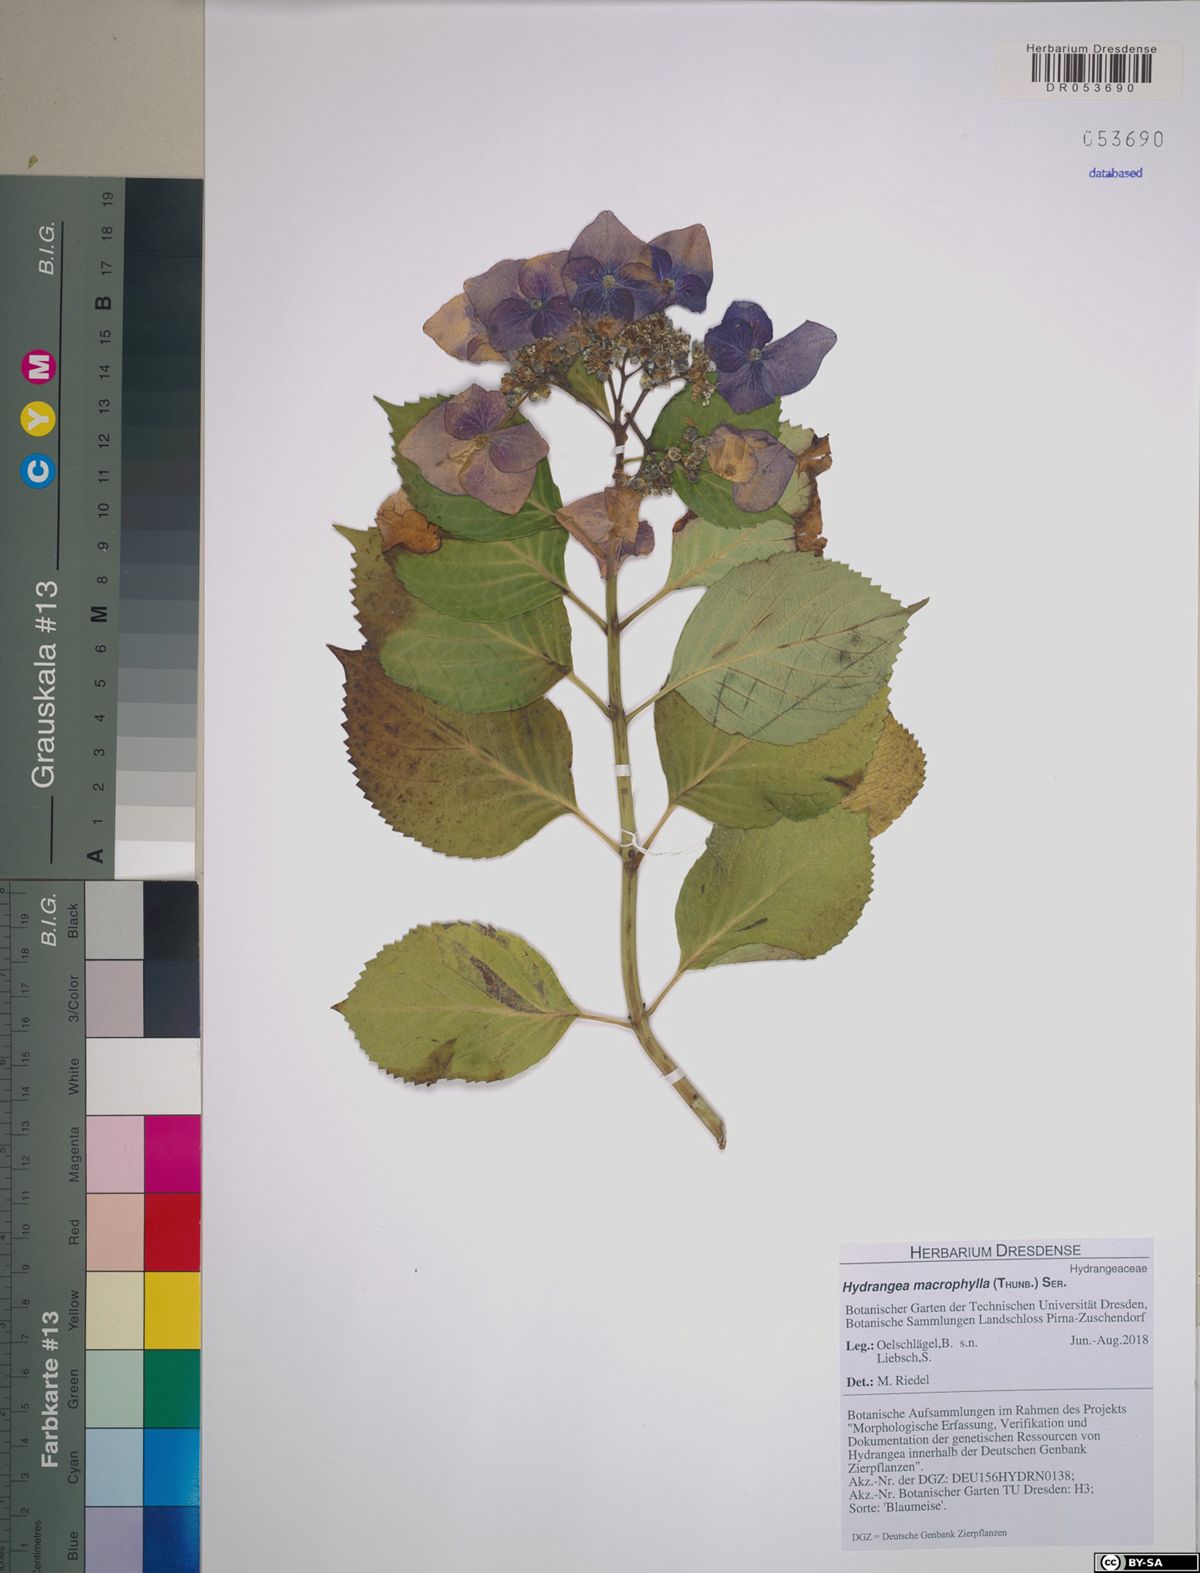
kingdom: Plantae
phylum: Tracheophyta
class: Magnoliopsida
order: Cornales
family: Hydrangeaceae
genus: Hydrangea
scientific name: Hydrangea macrophylla
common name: Hydrangea
